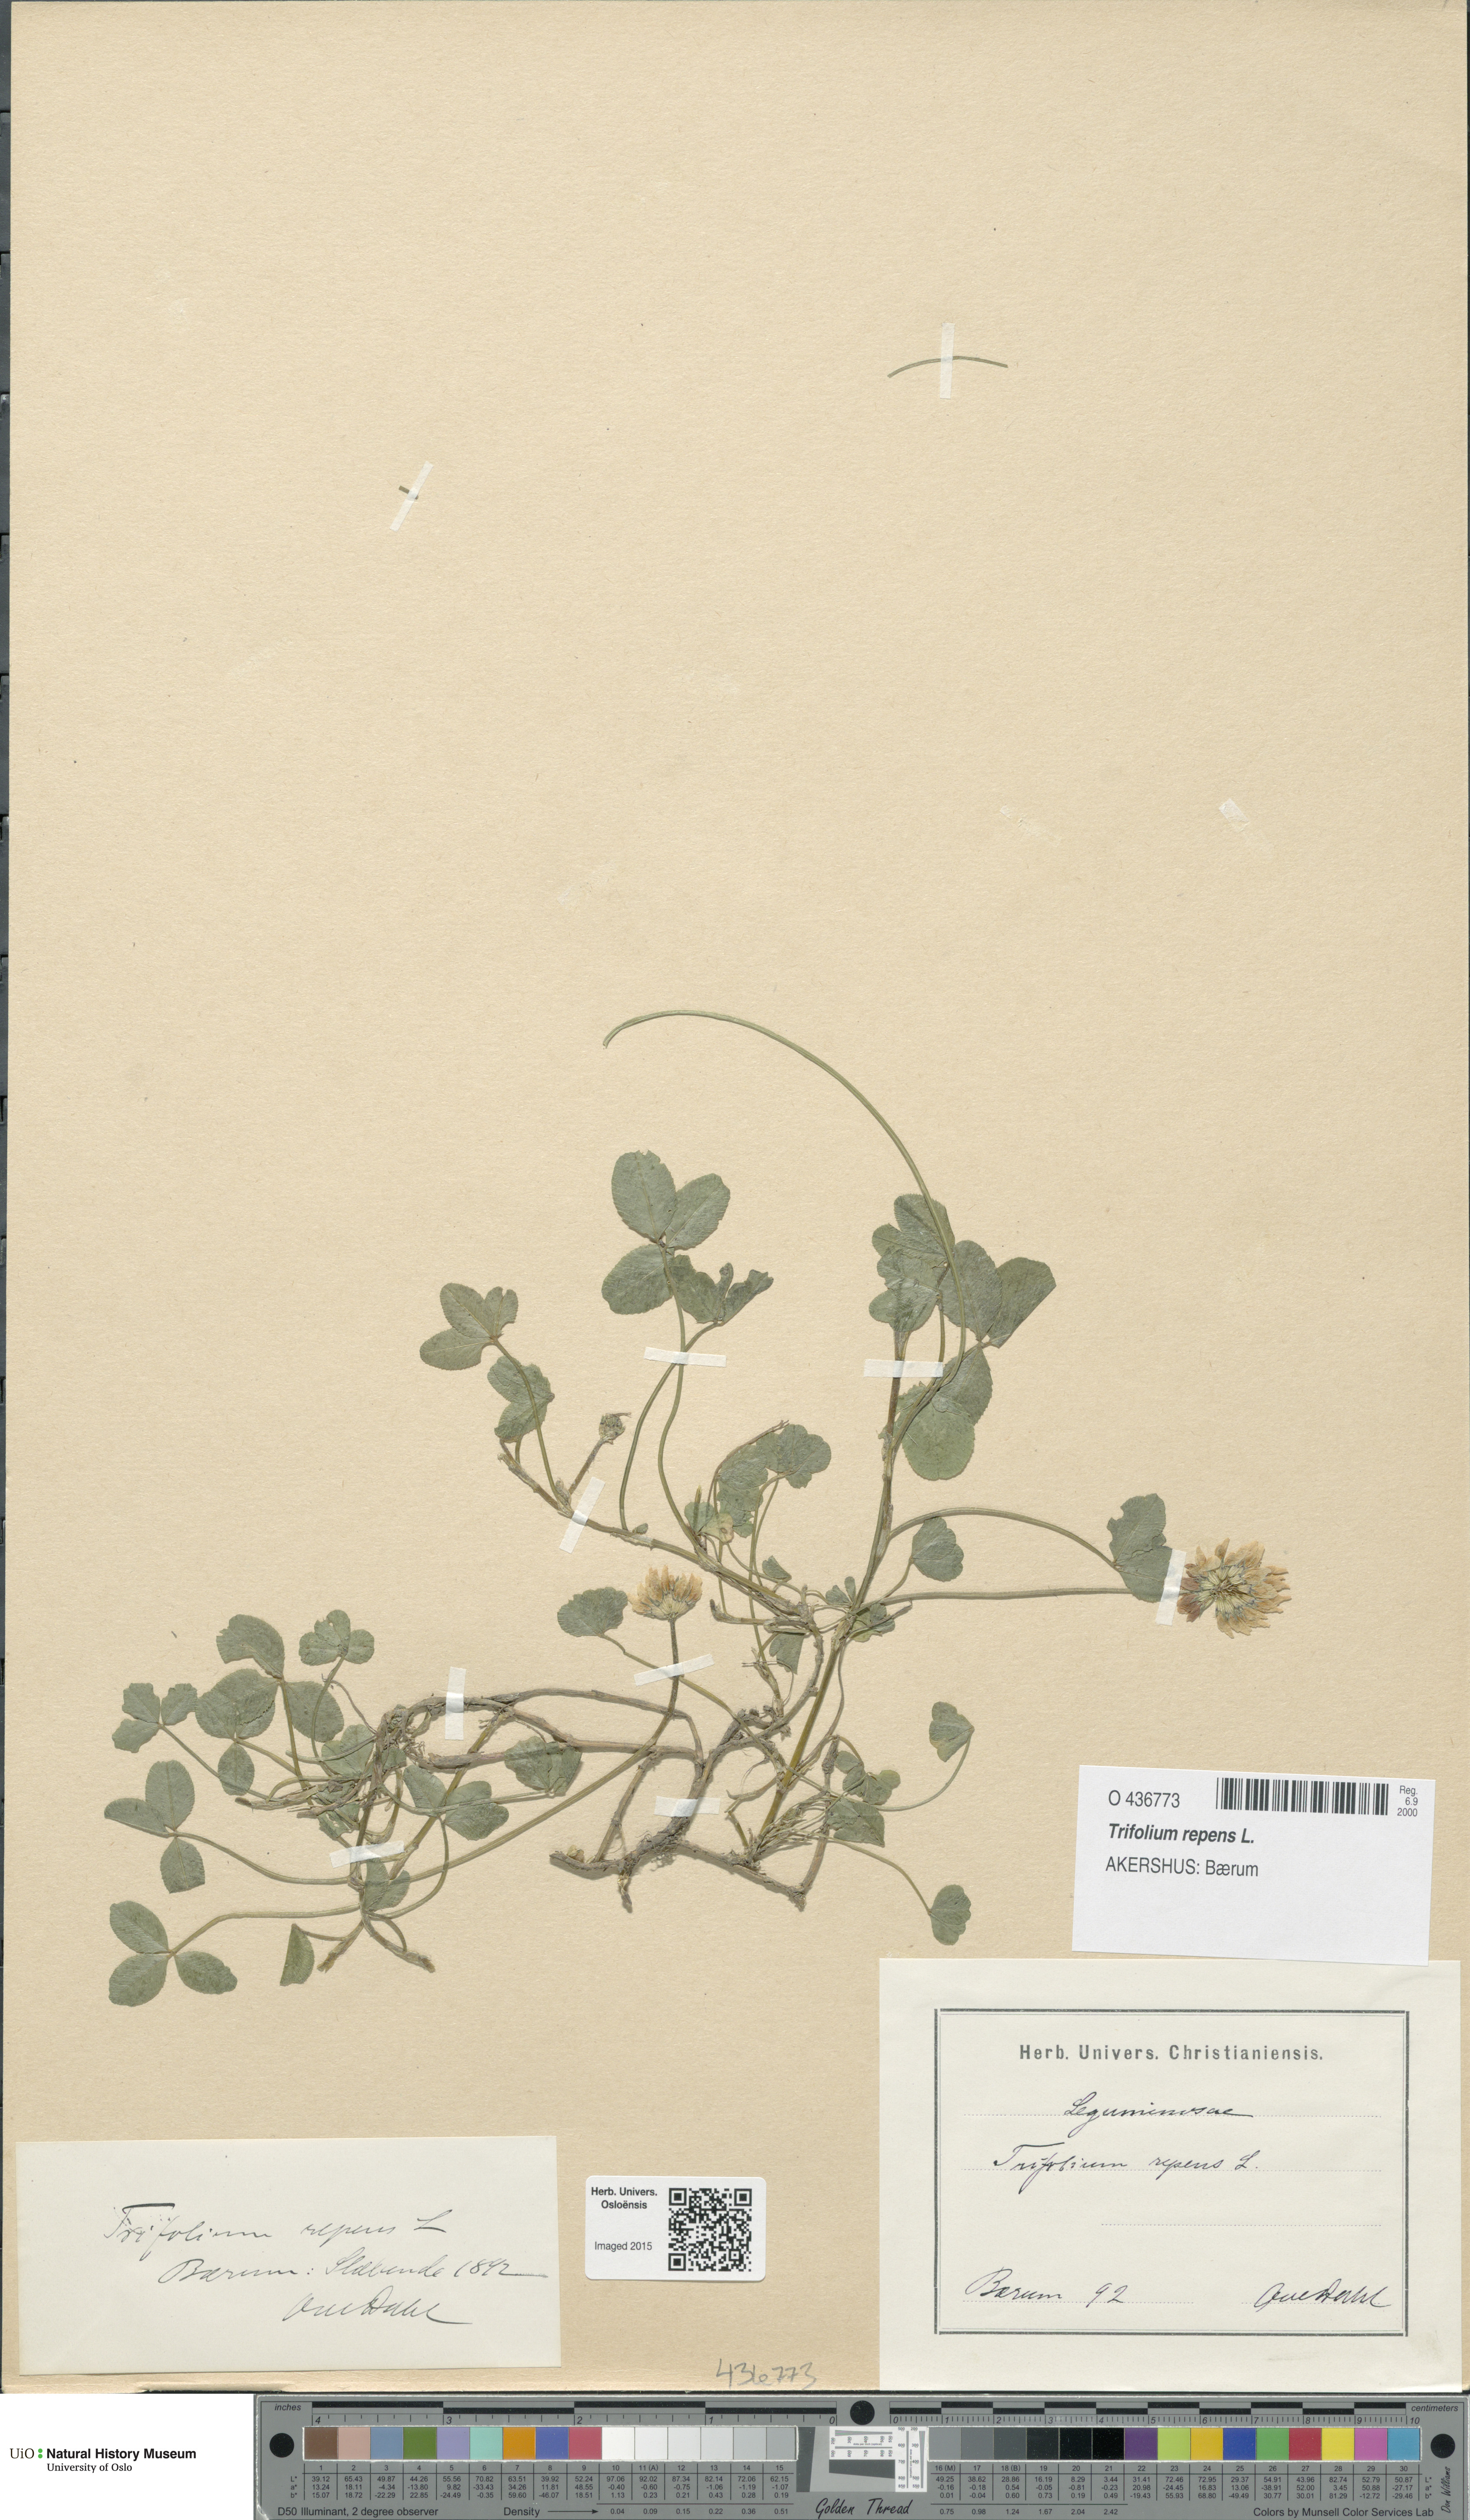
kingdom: Plantae
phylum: Tracheophyta
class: Magnoliopsida
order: Fabales
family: Fabaceae
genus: Trifolium
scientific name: Trifolium repens
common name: White clover
